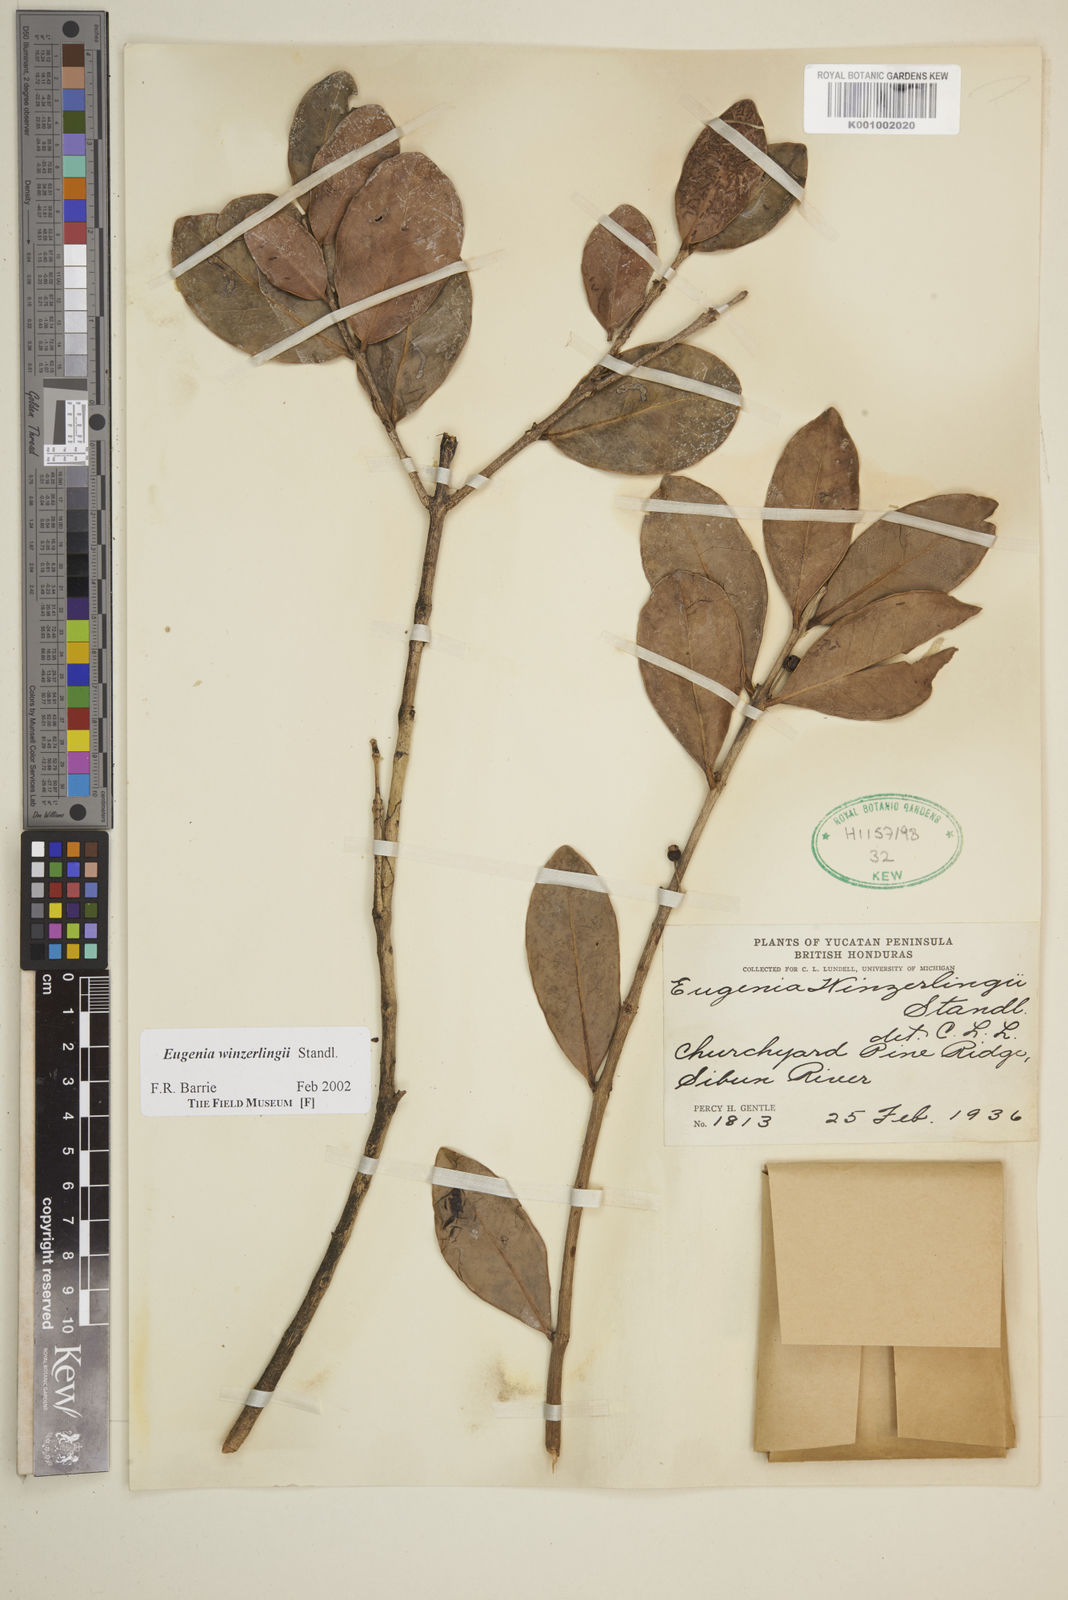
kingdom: Plantae
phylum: Tracheophyta
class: Magnoliopsida
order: Myrtales
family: Myrtaceae
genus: Eugenia
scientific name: Eugenia winzerlingii
